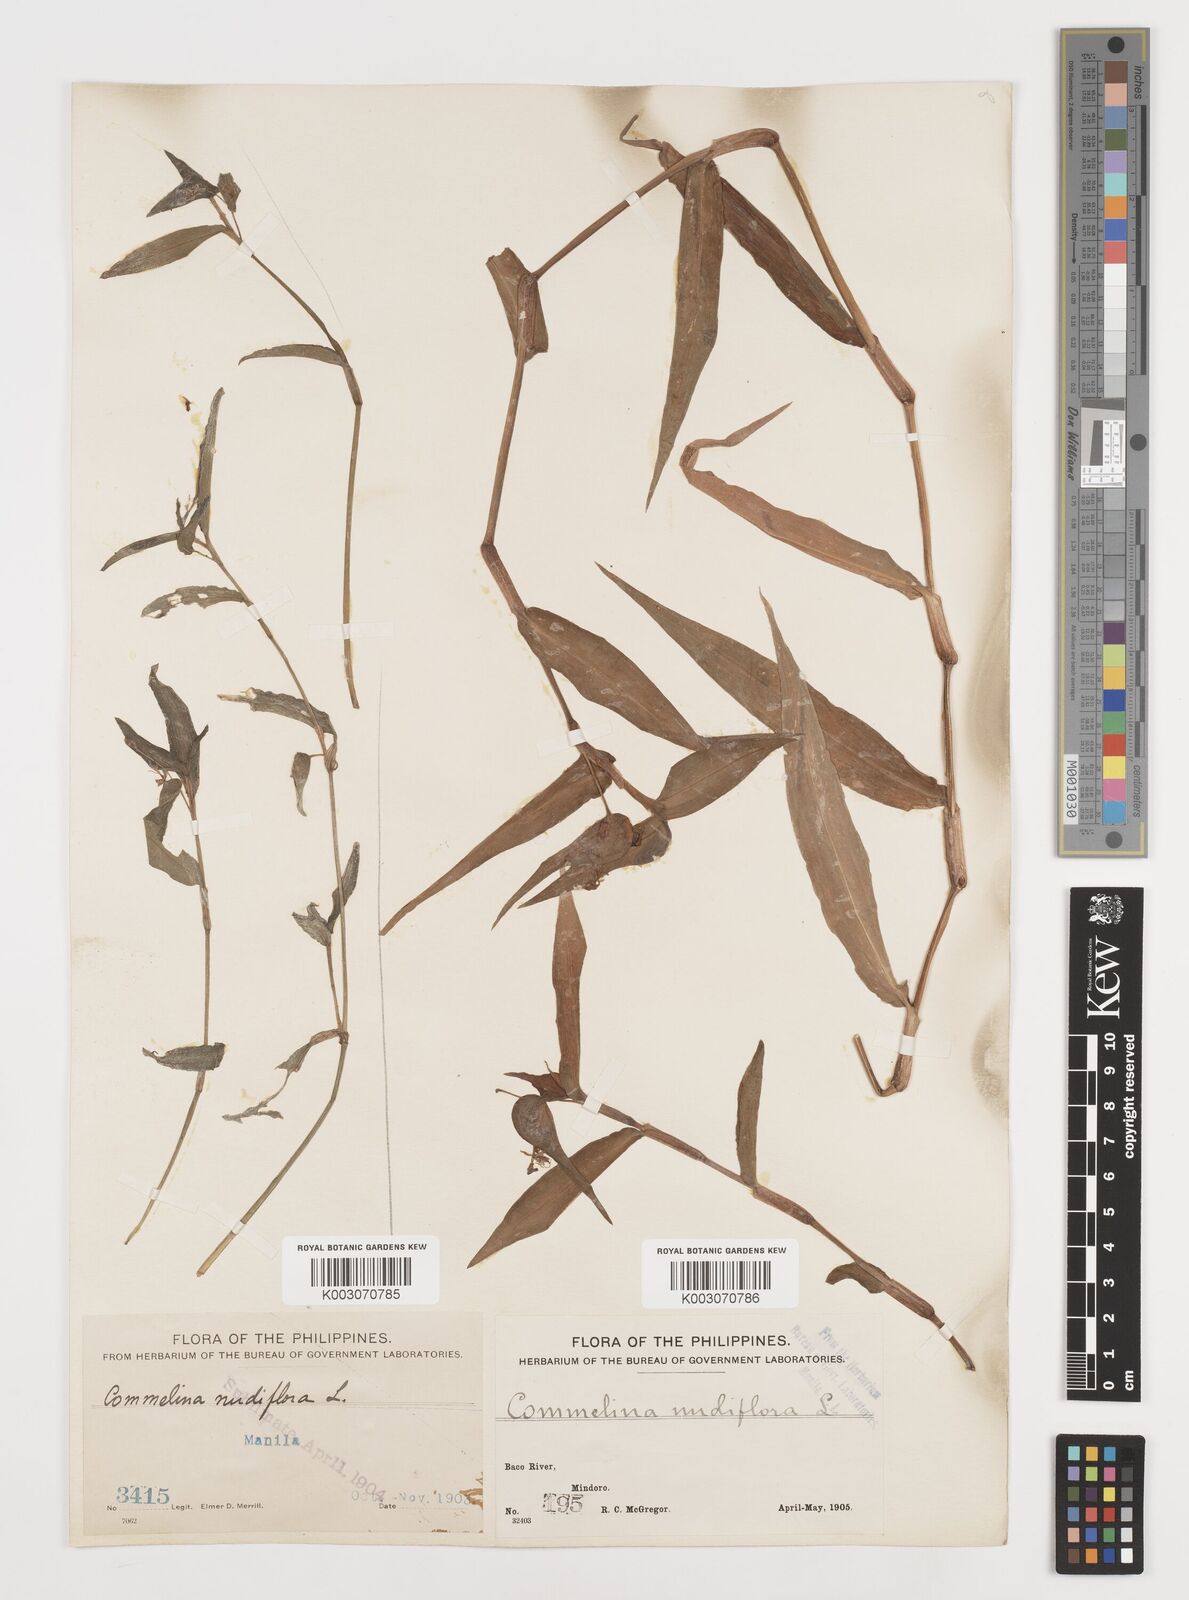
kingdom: Plantae
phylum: Tracheophyta
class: Liliopsida
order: Commelinales
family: Commelinaceae
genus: Murdannia
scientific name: Murdannia nudiflora
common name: Nakedstem dewflower
